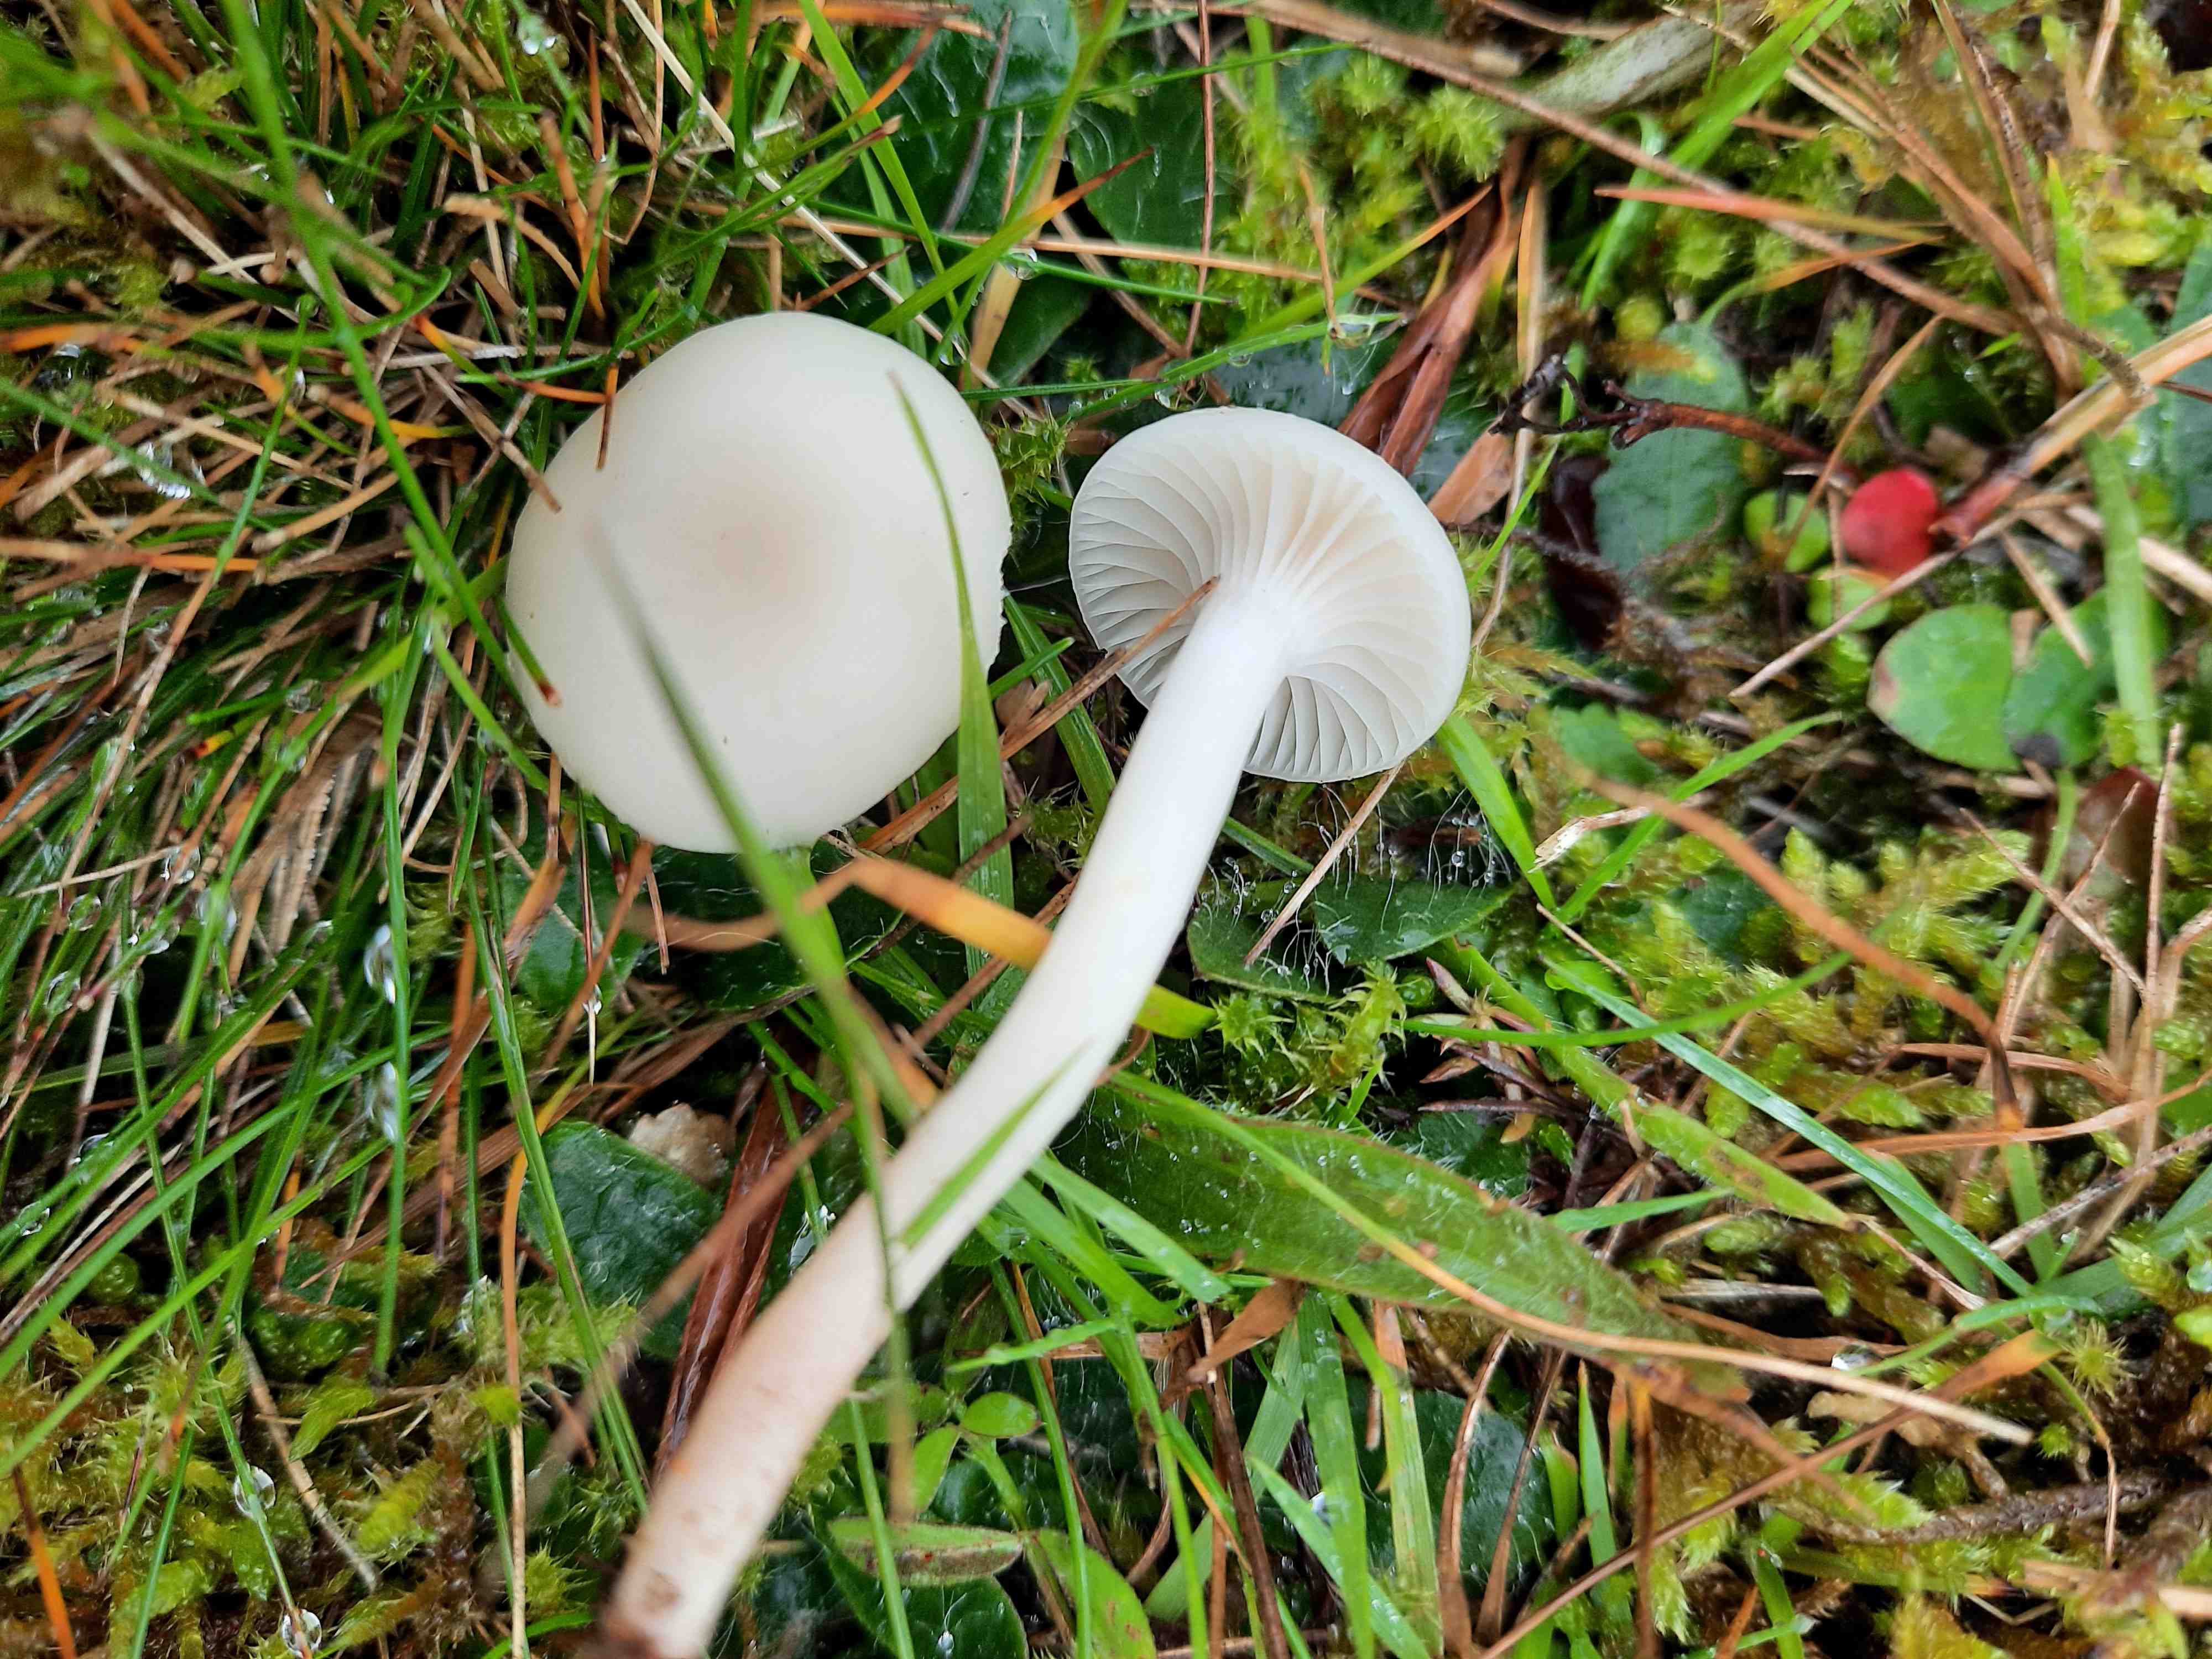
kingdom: Fungi
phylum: Basidiomycota
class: Agaricomycetes
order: Agaricales
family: Hygrophoraceae
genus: Cuphophyllus
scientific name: Cuphophyllus virgineus
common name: snehvid vokshat
